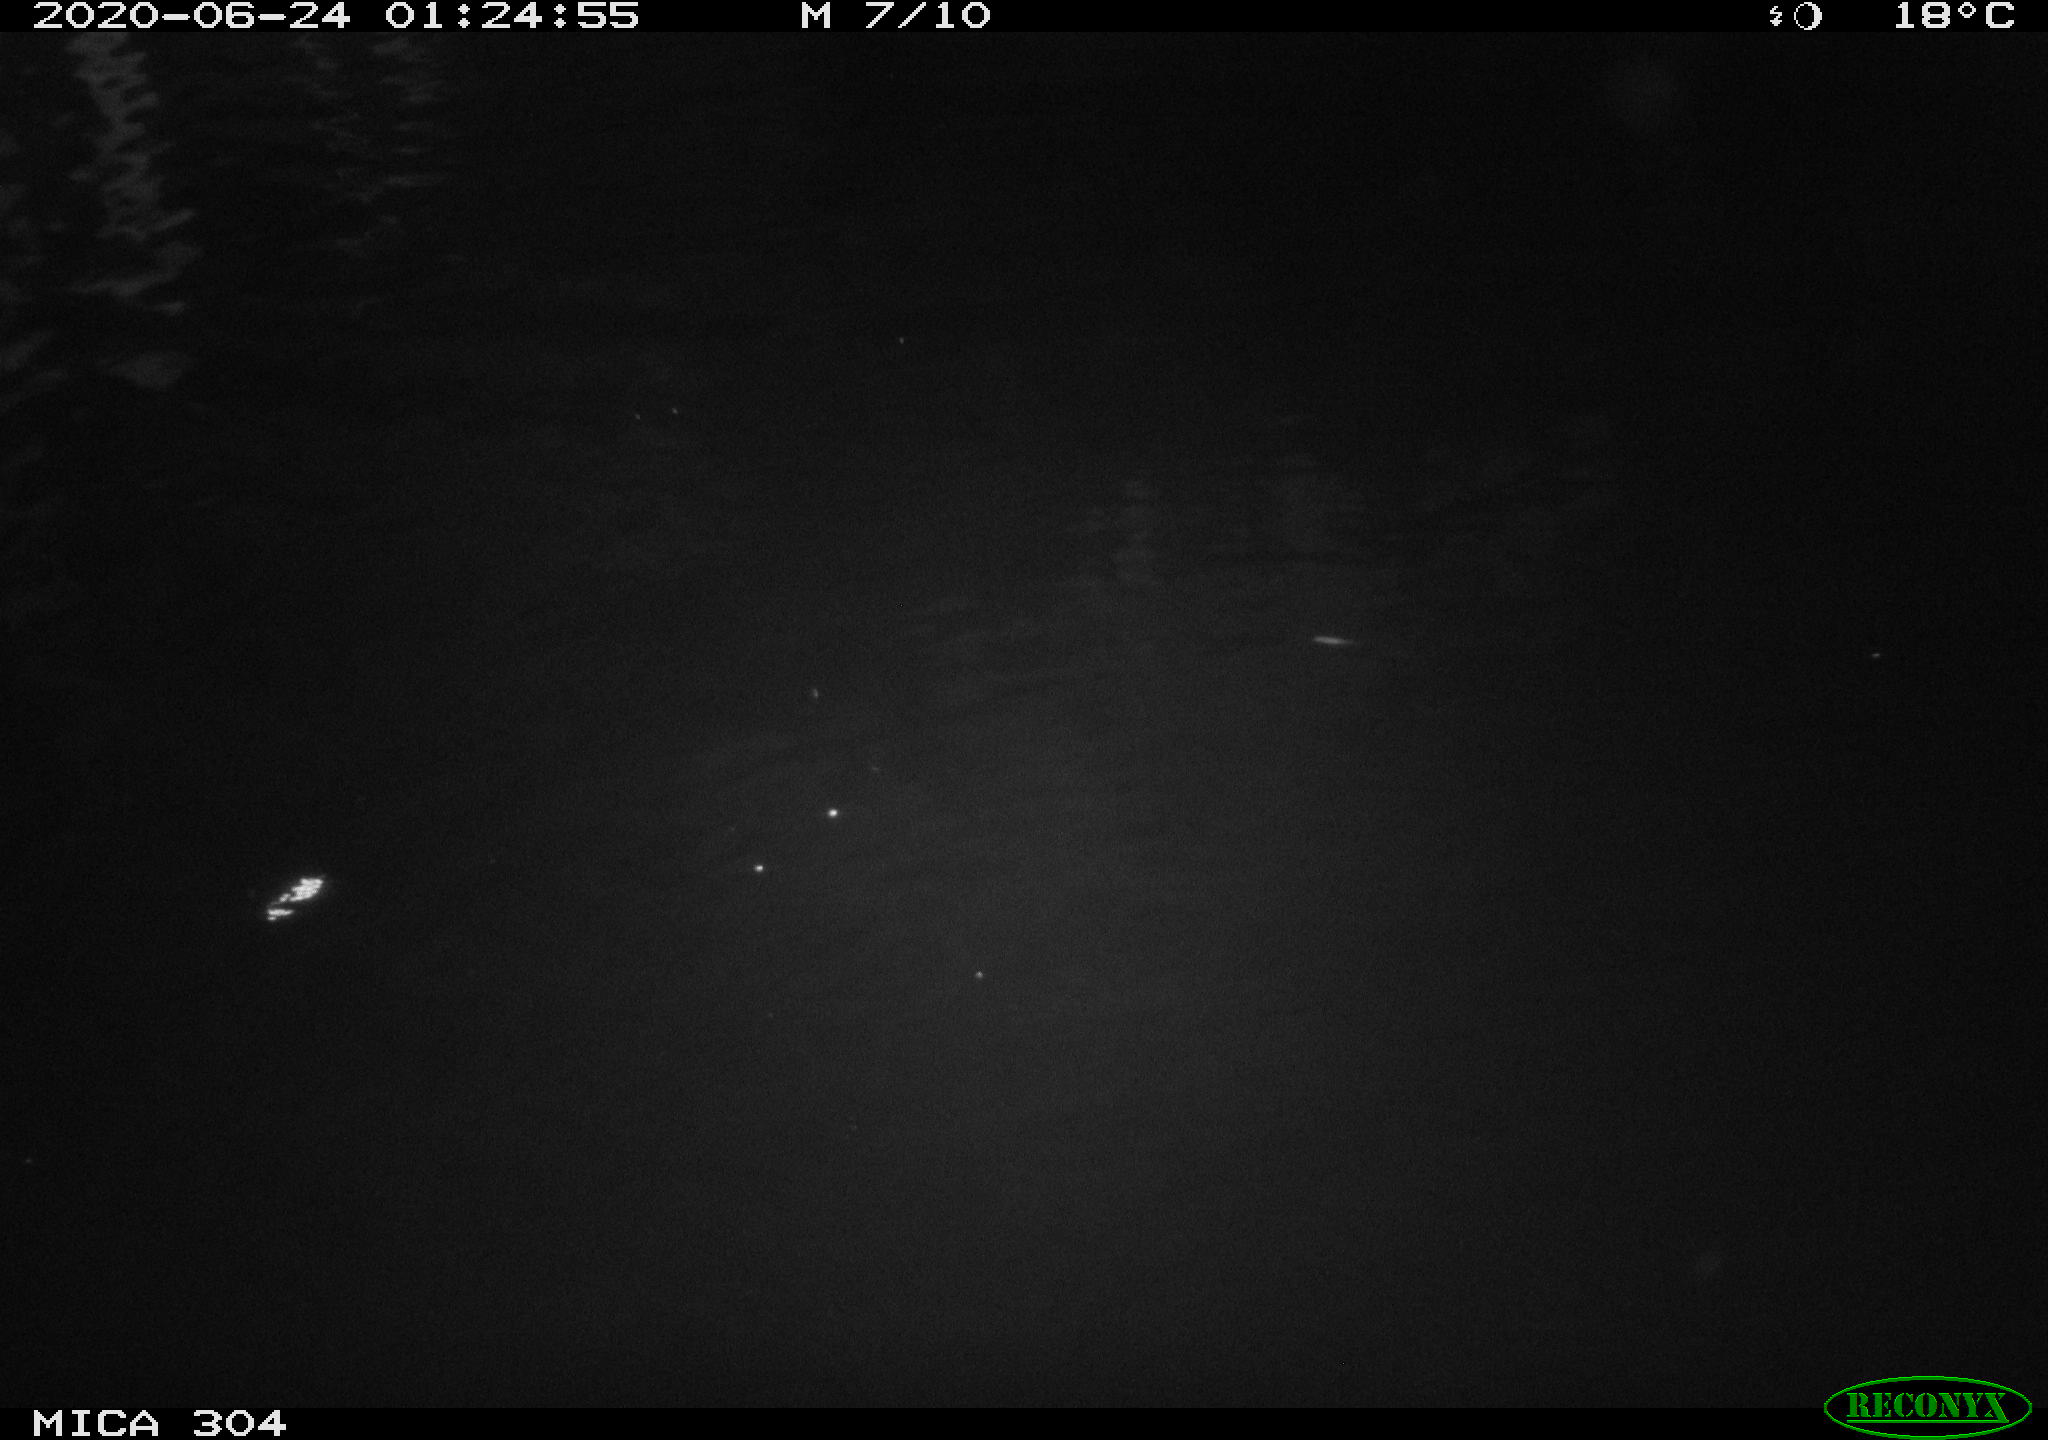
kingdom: Animalia
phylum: Chordata
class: Mammalia
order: Rodentia
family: Muridae
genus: Rattus
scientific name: Rattus norvegicus
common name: Brown rat
